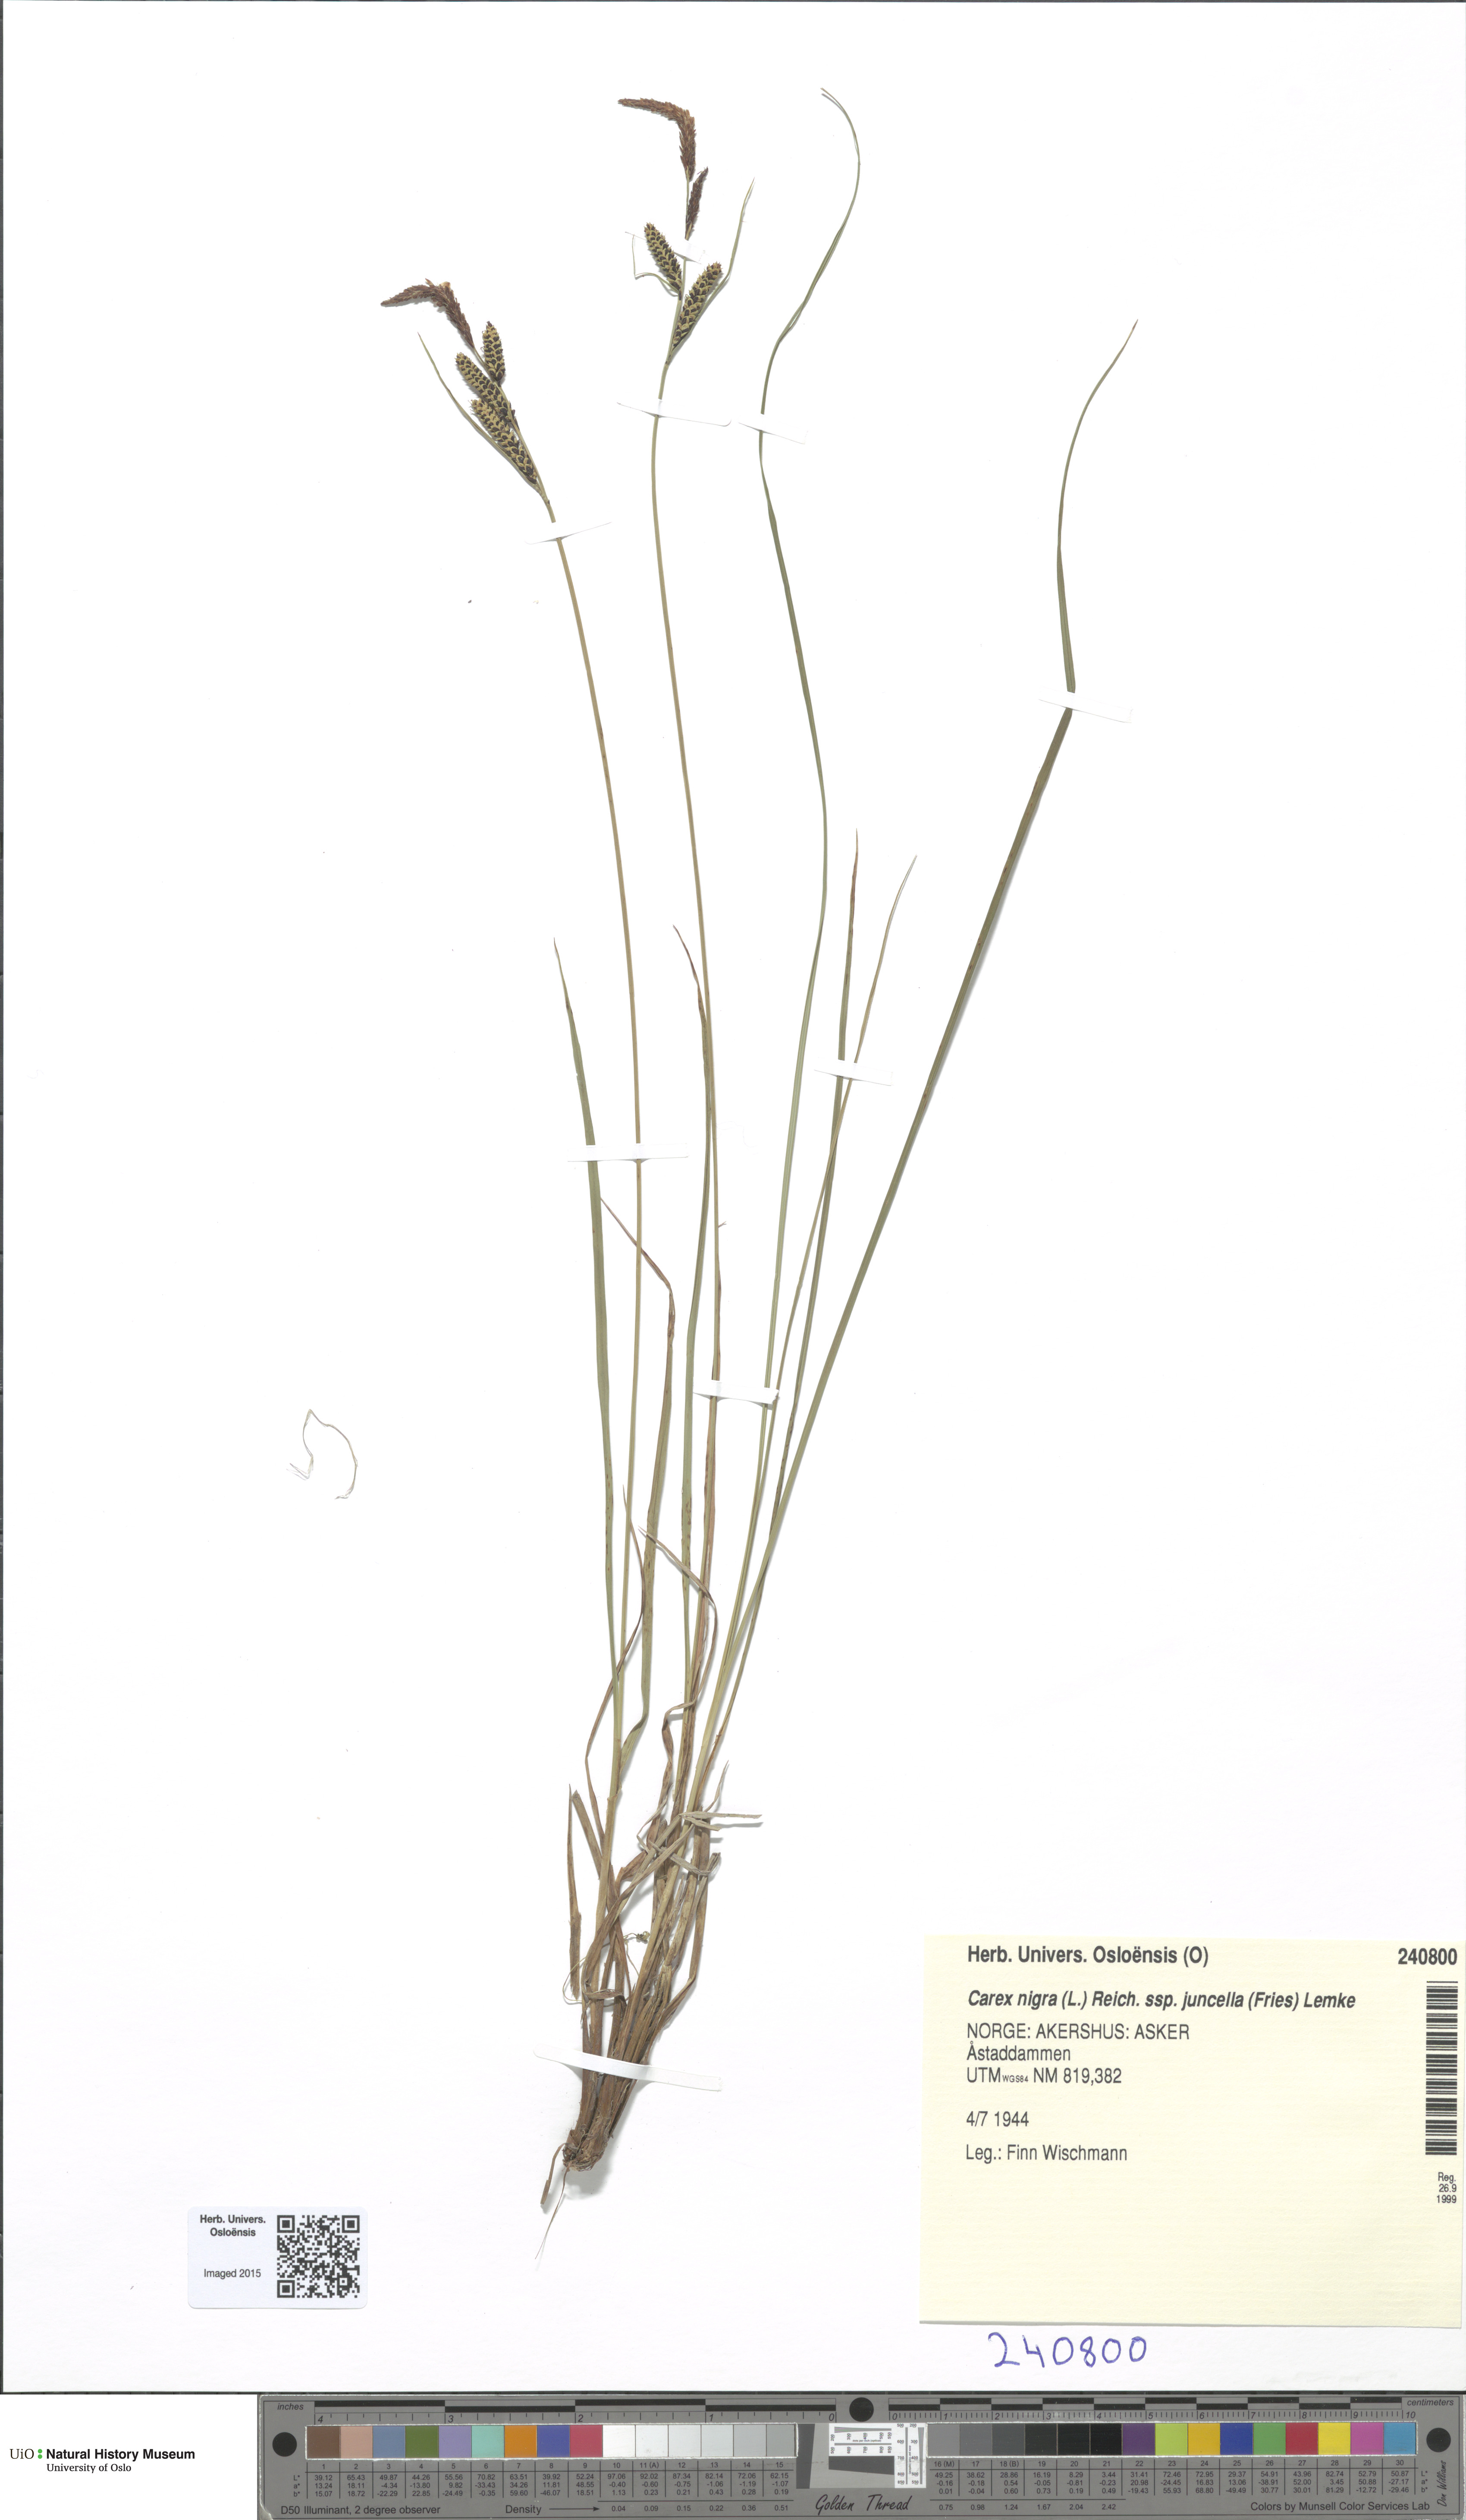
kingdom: Plantae
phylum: Tracheophyta
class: Liliopsida
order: Poales
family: Cyperaceae
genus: Carex
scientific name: Carex nigra
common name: Common sedge
